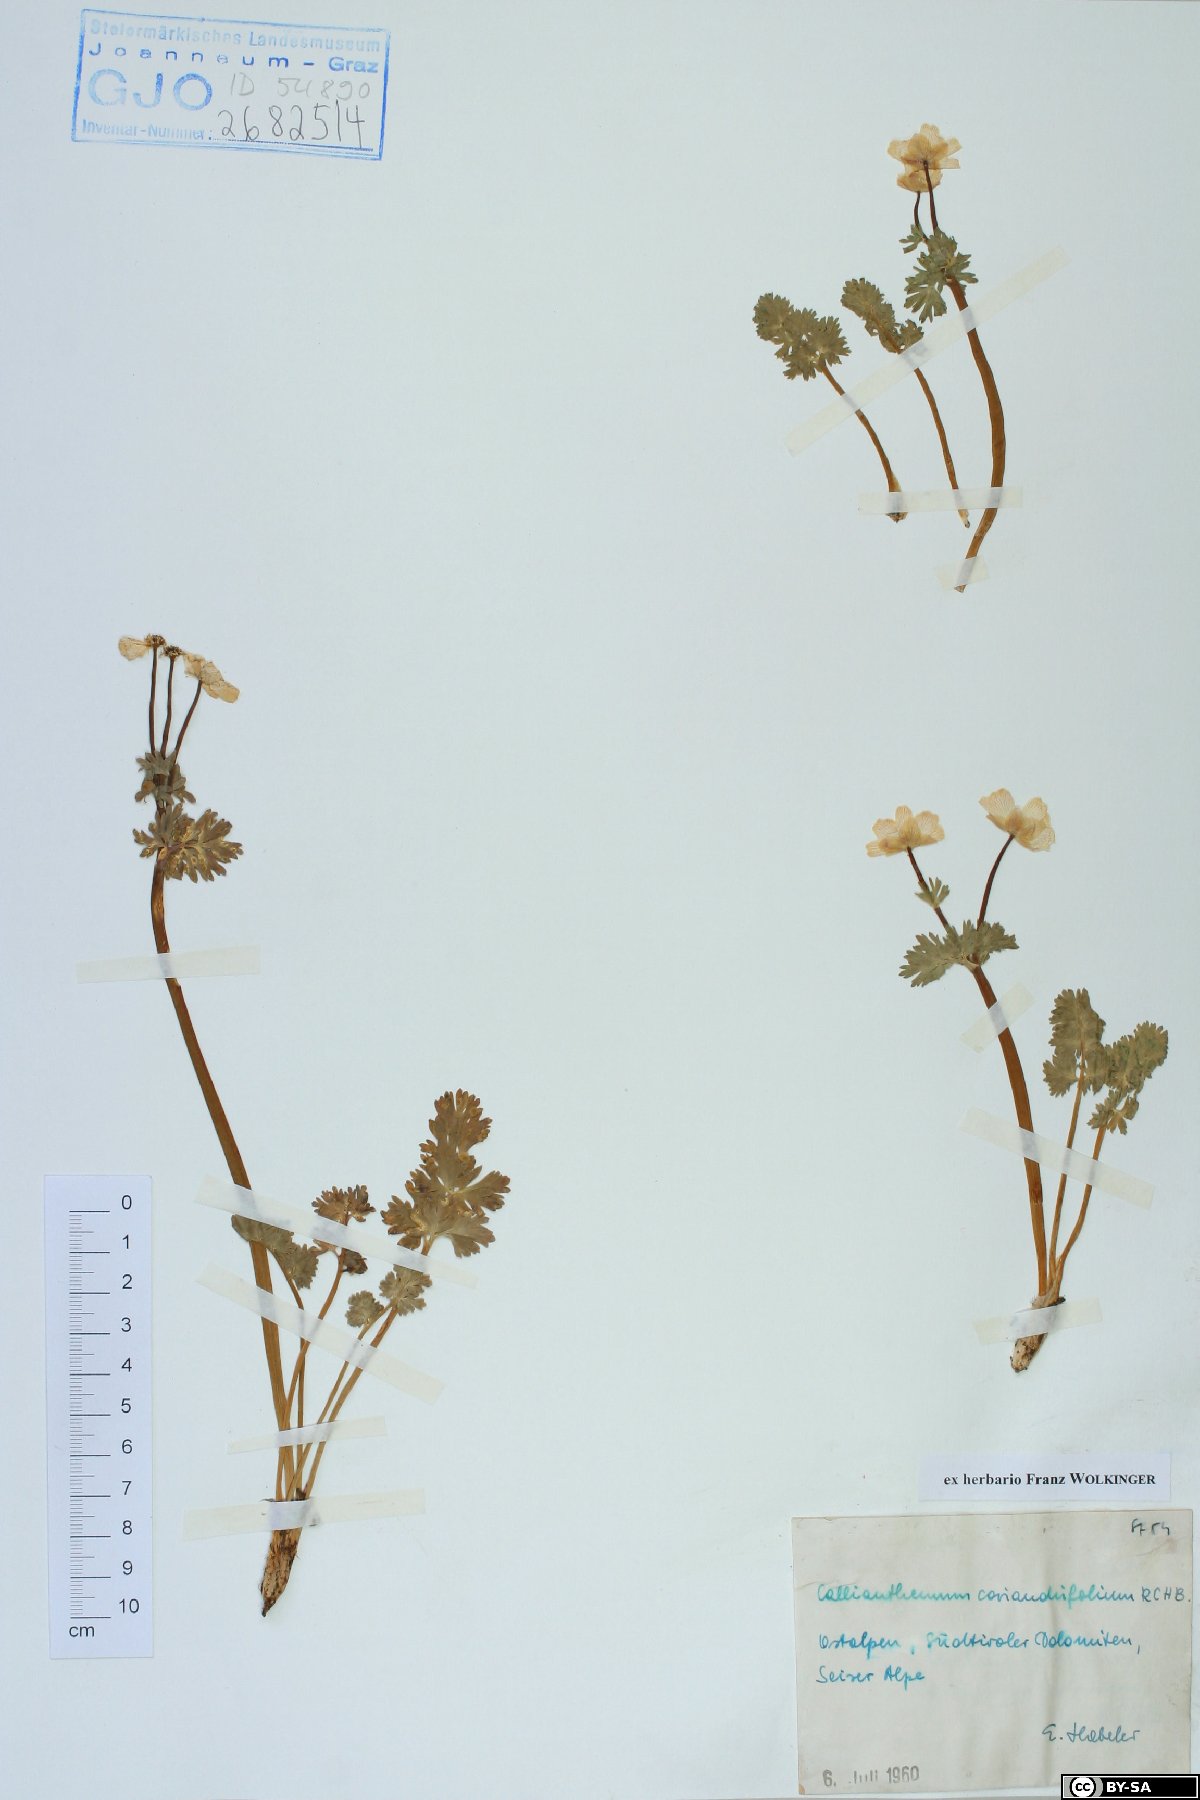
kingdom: Plantae
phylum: Tracheophyta
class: Magnoliopsida
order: Ranunculales
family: Ranunculaceae
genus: Callianthemum
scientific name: Callianthemum coriandrifolium
